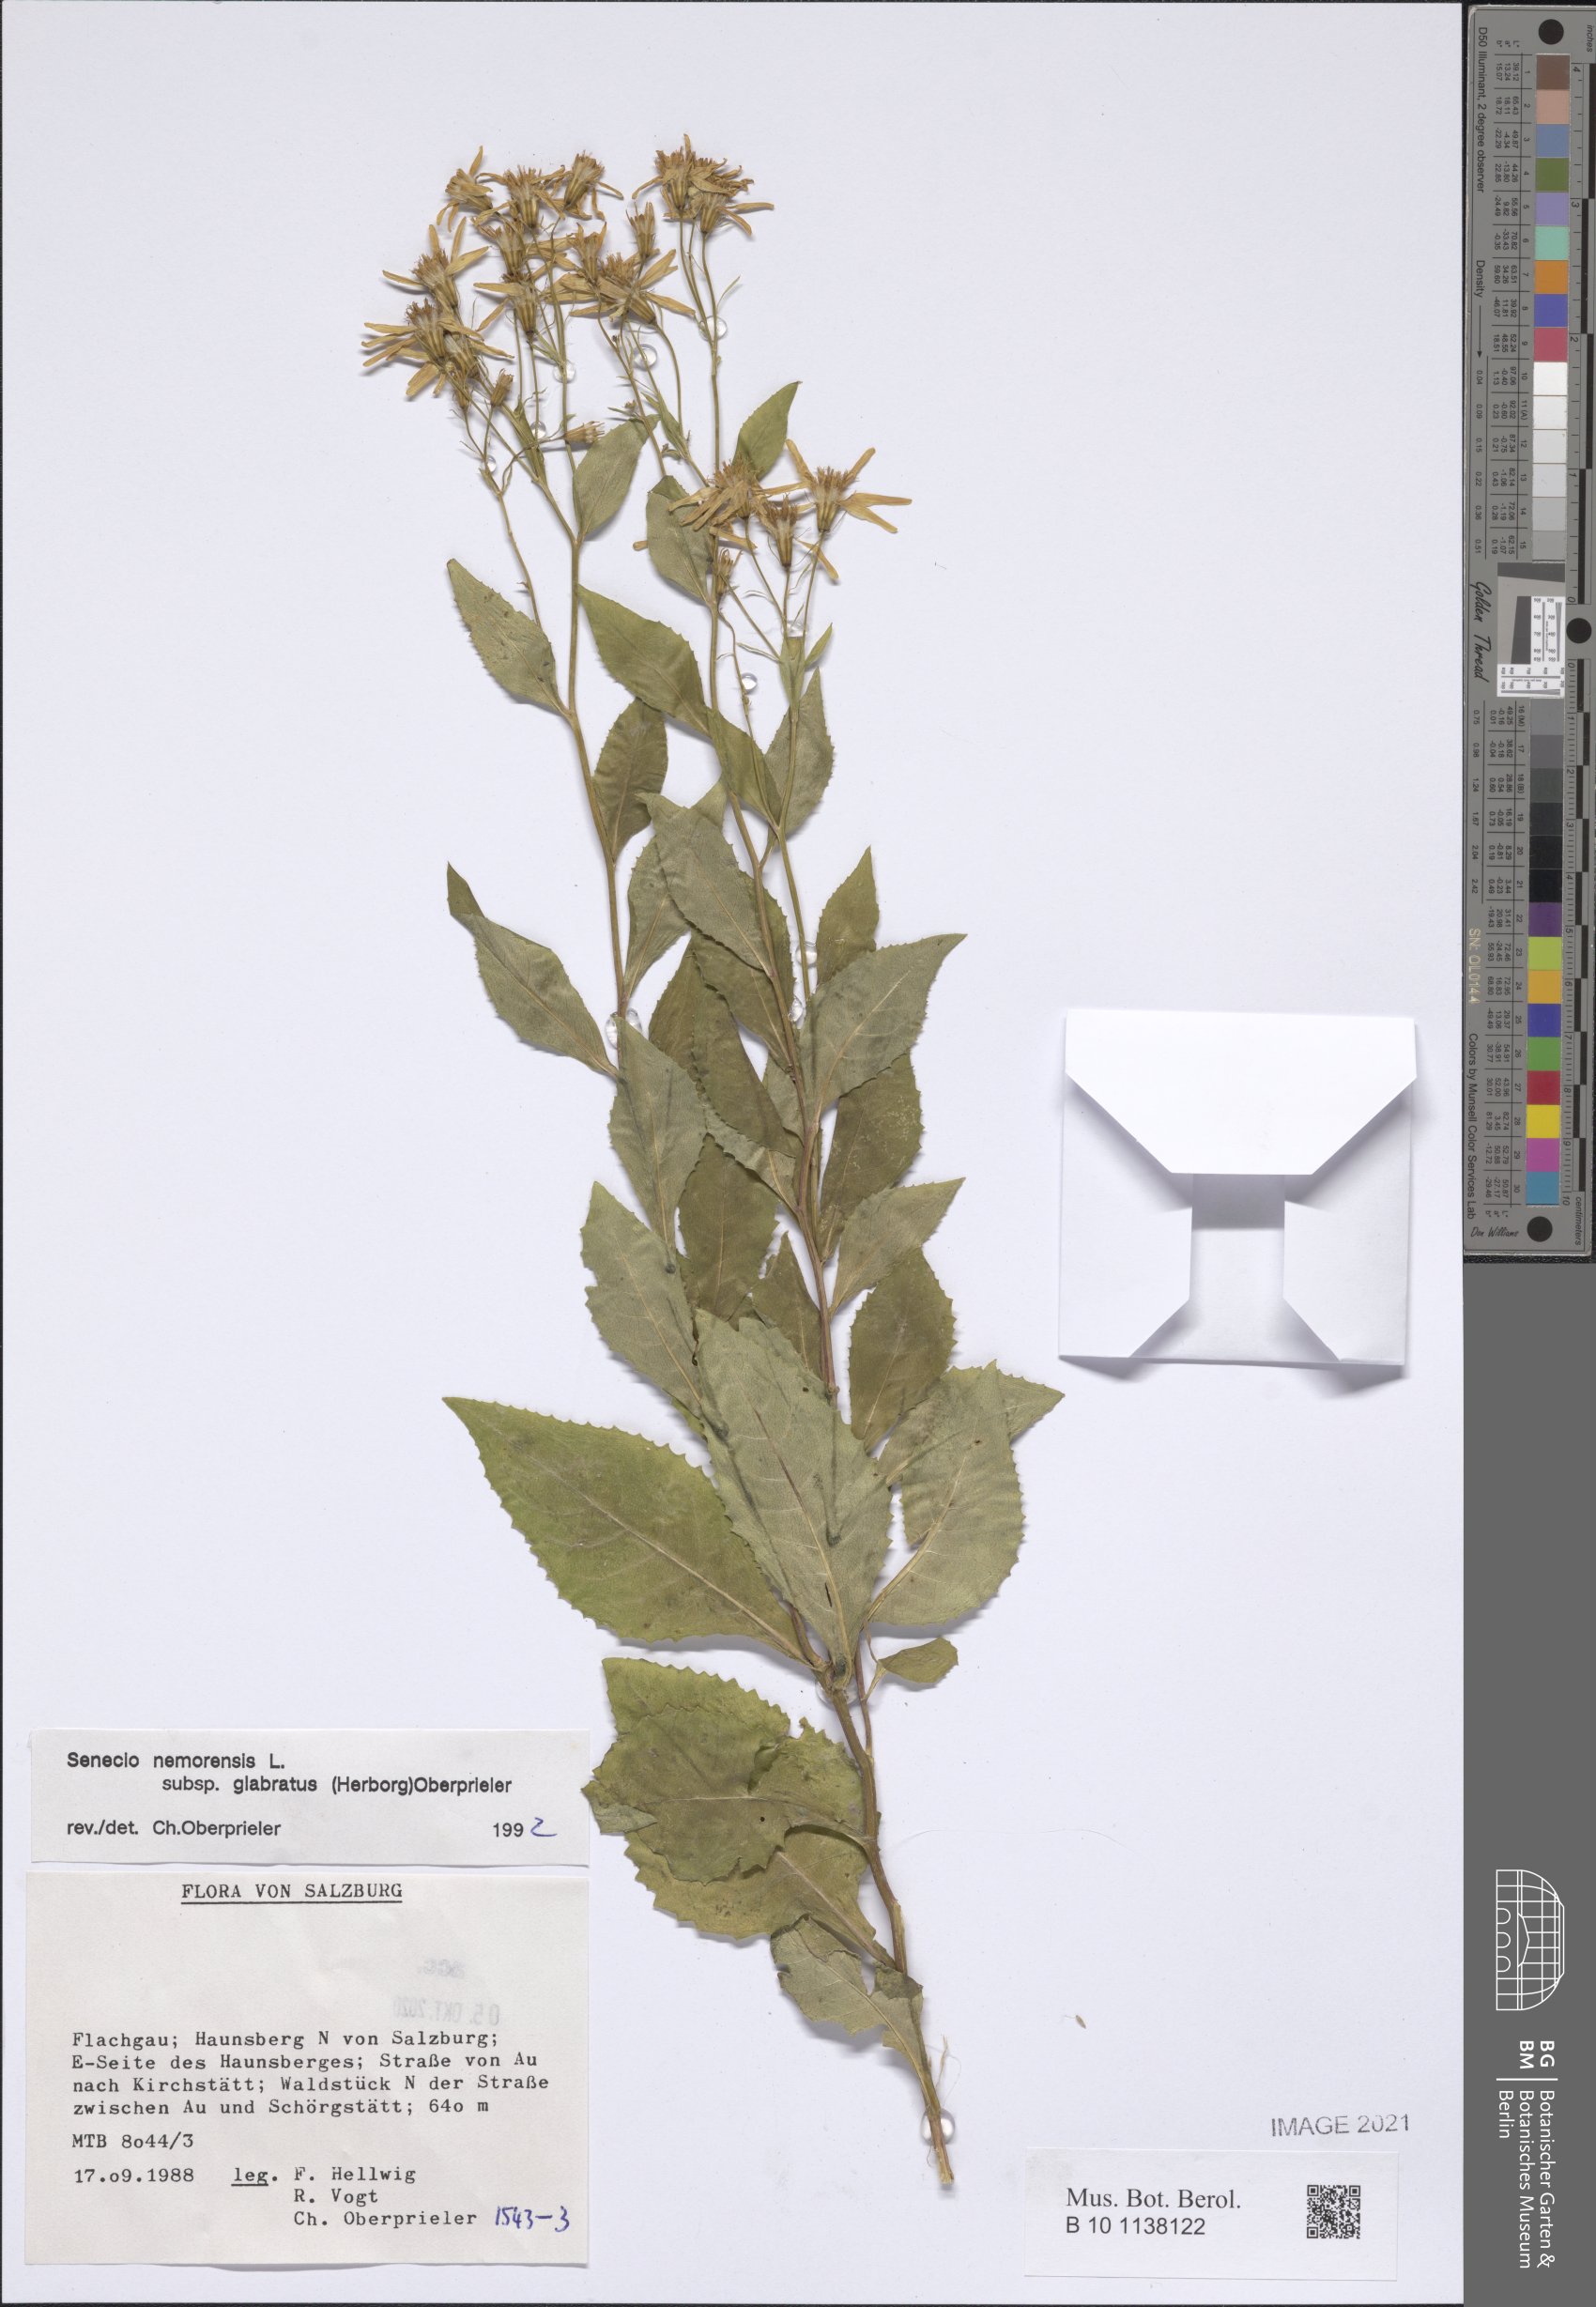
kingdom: Plantae
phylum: Tracheophyta
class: Magnoliopsida
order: Asterales
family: Asteraceae
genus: Senecio
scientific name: Senecio germanicus
